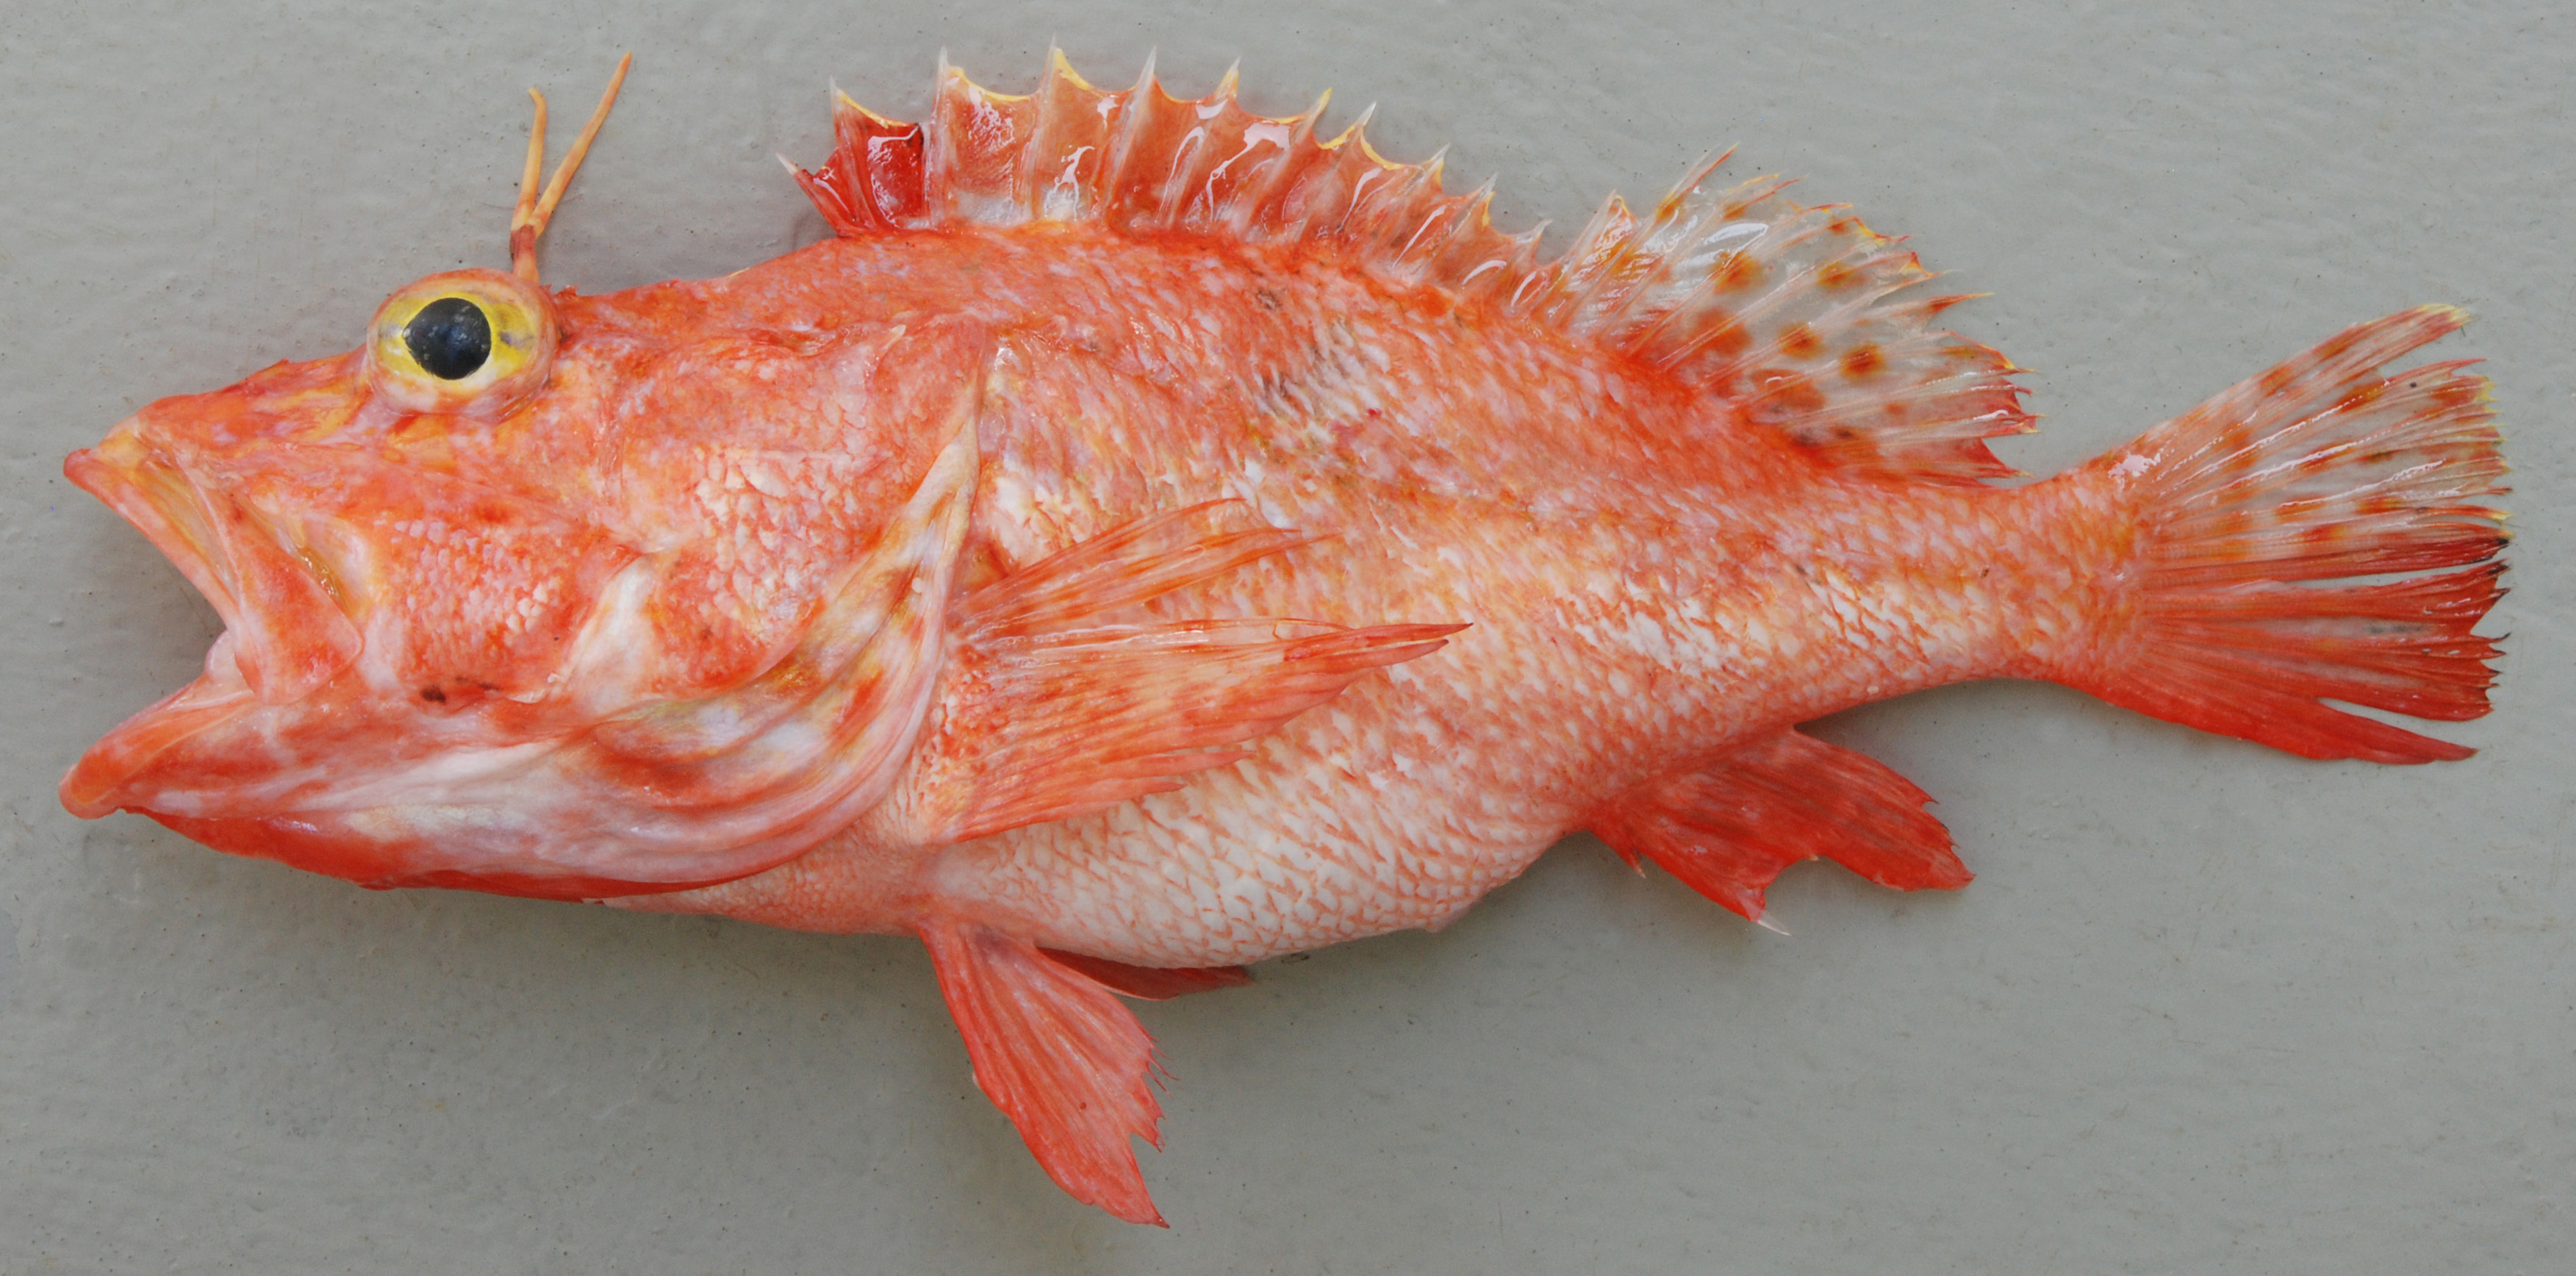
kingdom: Animalia
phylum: Chordata
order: Scorpaeniformes
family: Scorpaenidae
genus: Pontinus
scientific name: Pontinus nigerimum
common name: Blacklash scorpionfish
